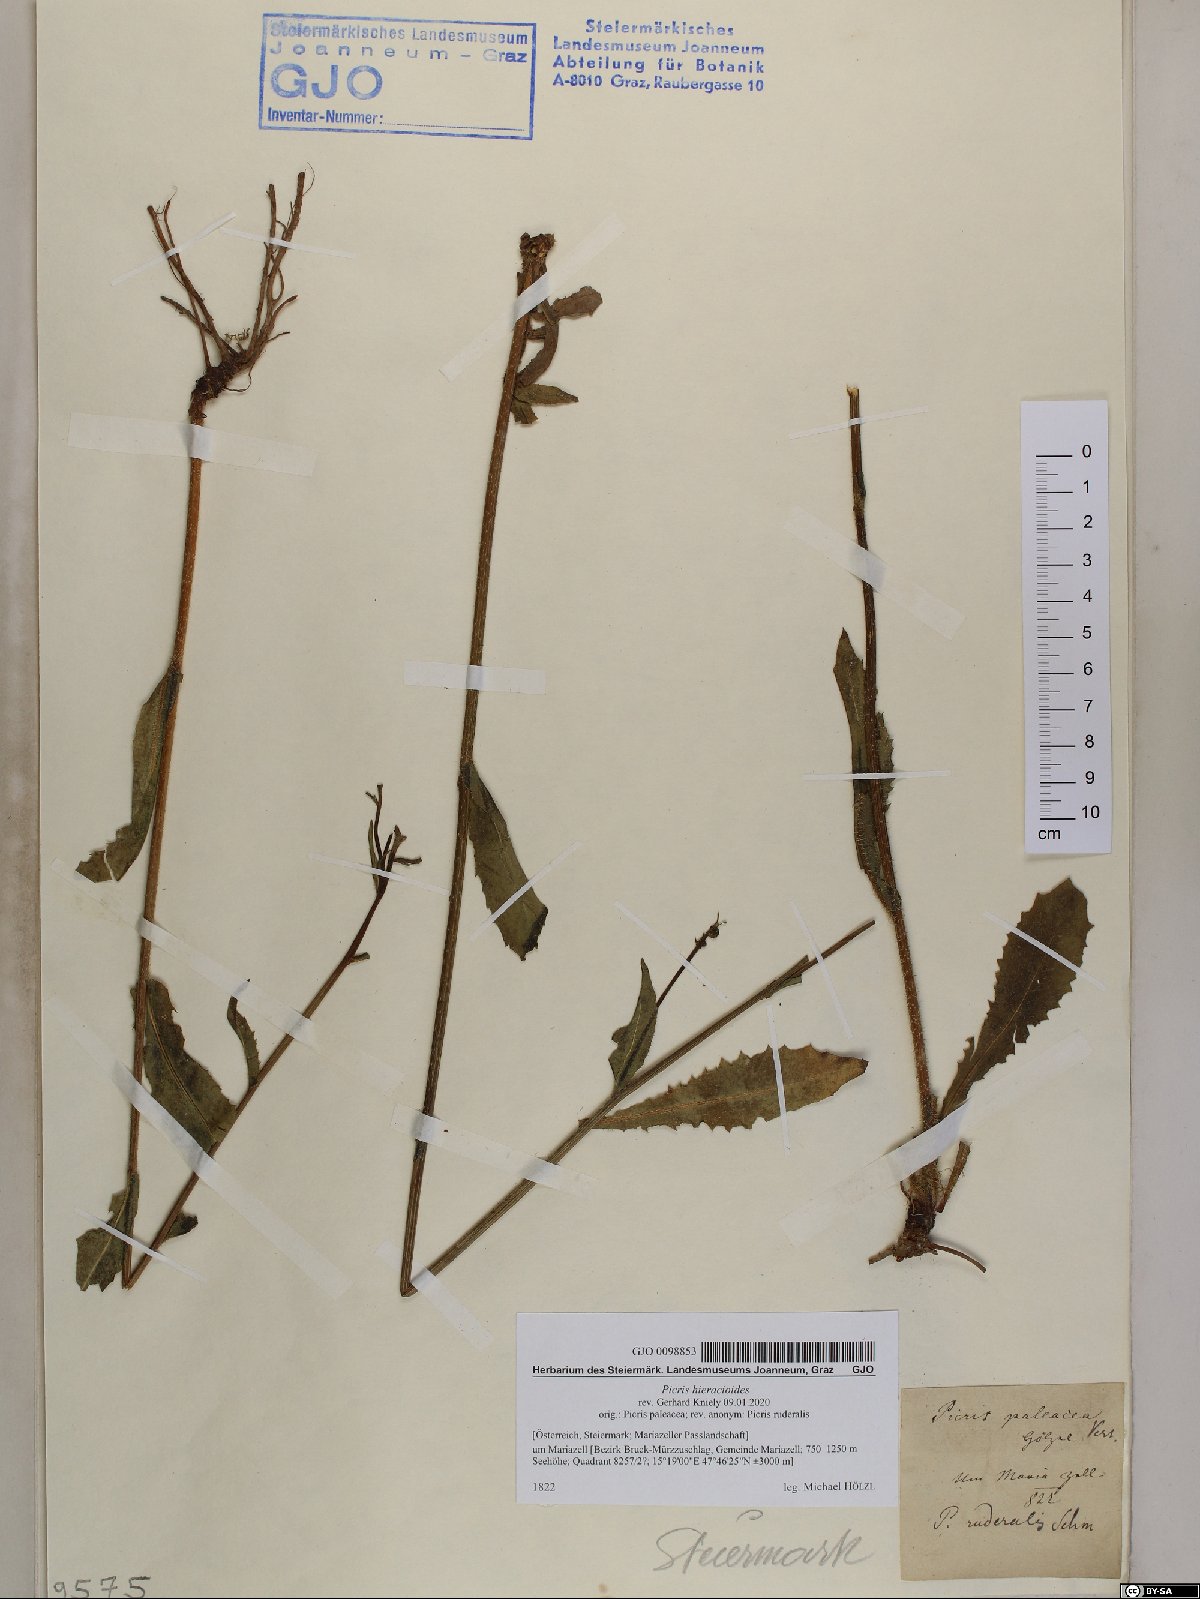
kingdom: Plantae
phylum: Tracheophyta
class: Magnoliopsida
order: Asterales
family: Asteraceae
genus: Picris
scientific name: Picris hieracioides
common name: Hawkweed oxtongue
